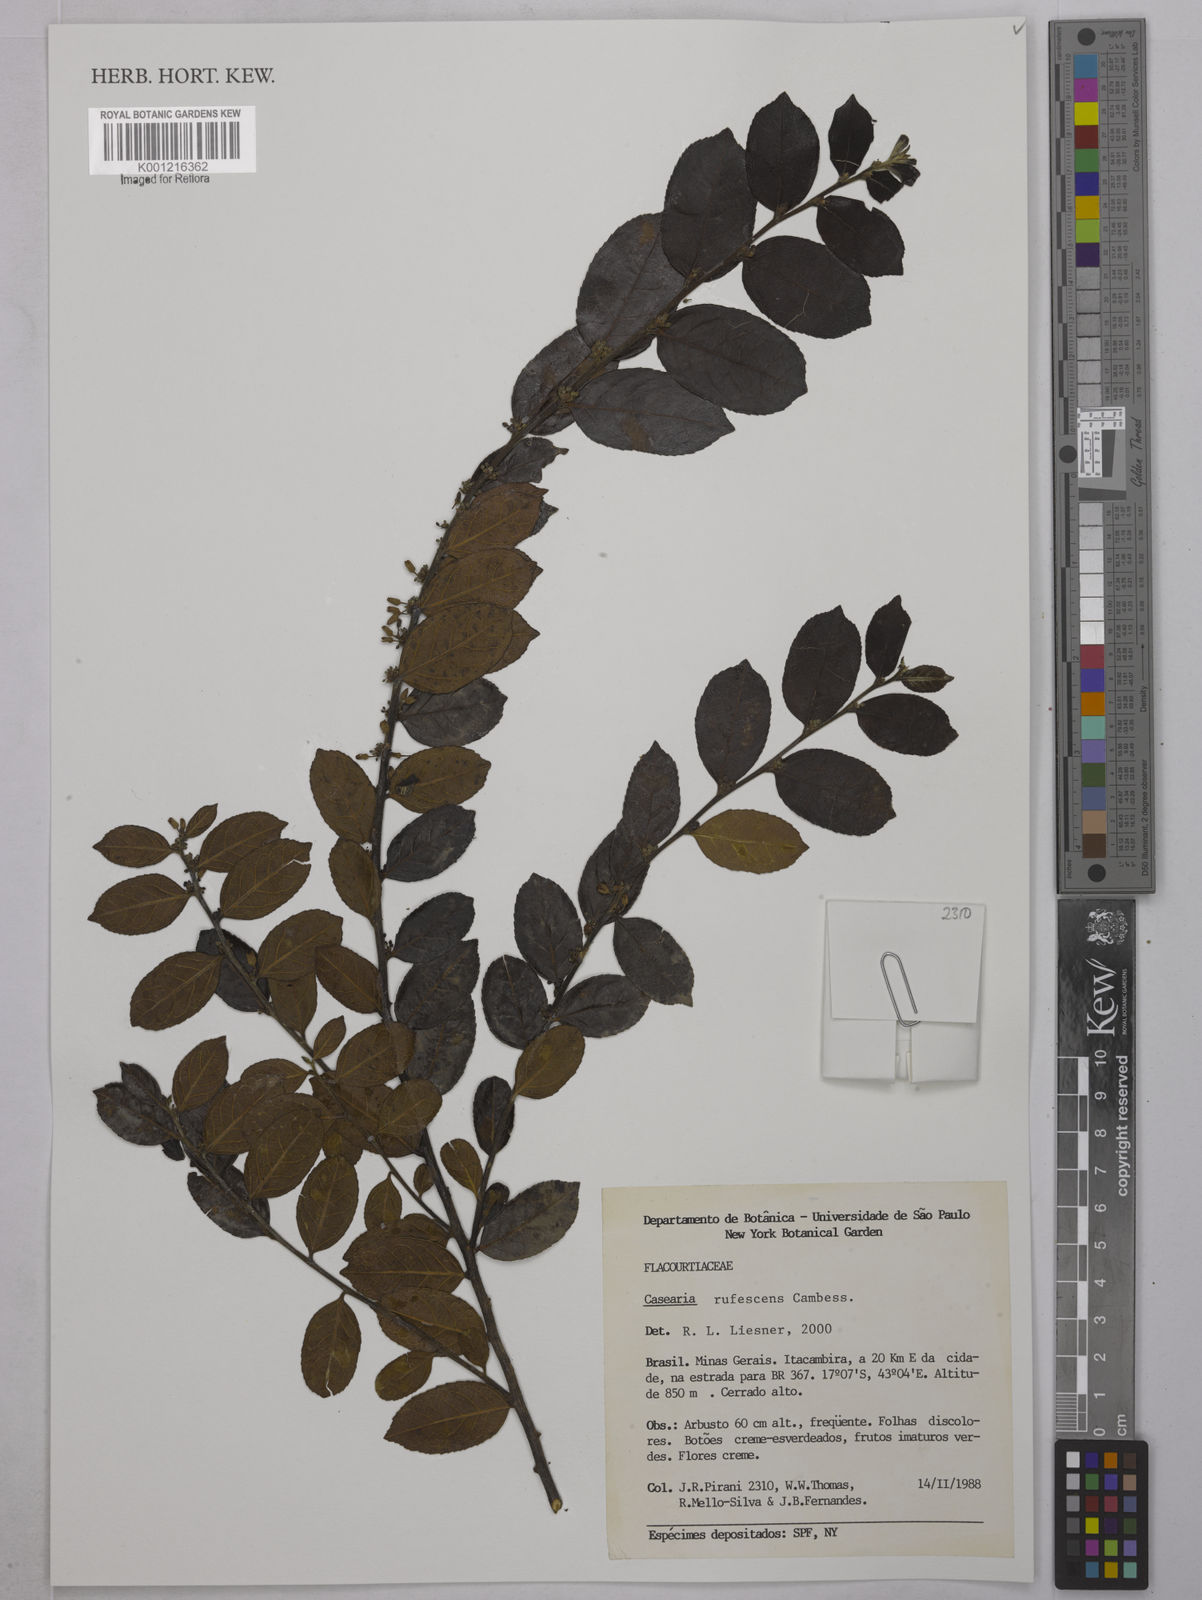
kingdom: Plantae
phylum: Tracheophyta
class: Magnoliopsida
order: Malpighiales
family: Salicaceae
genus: Casearia
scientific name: Casearia rufescens
